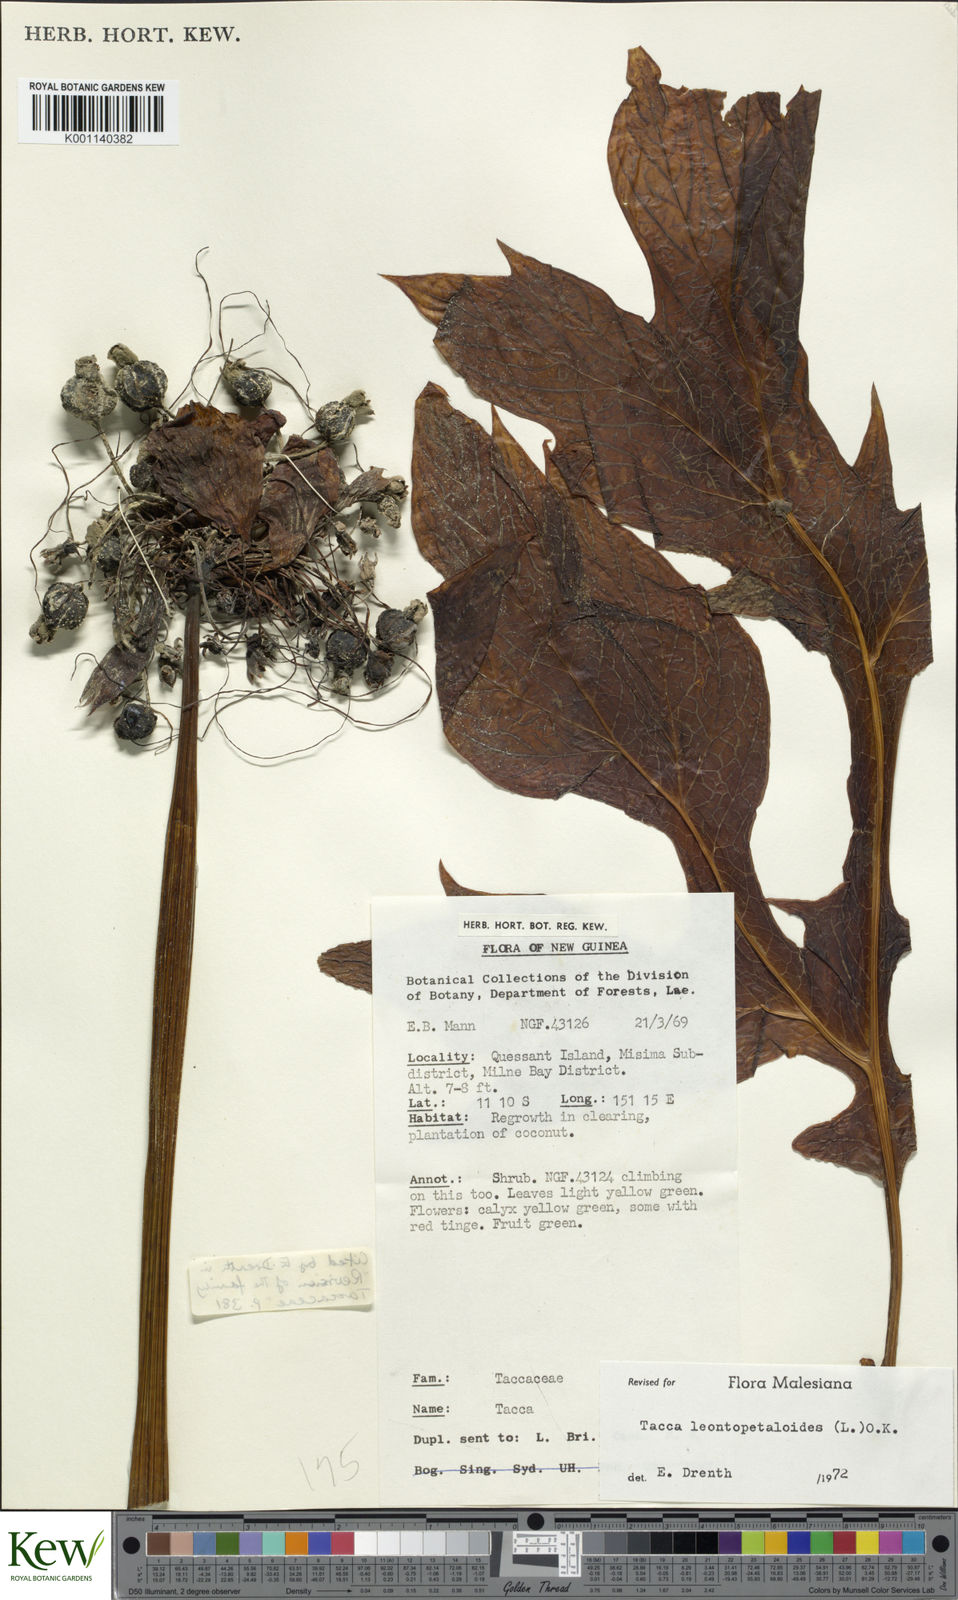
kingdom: Plantae
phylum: Tracheophyta
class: Liliopsida
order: Dioscoreales
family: Dioscoreaceae
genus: Tacca
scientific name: Tacca leontopetaloides
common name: Arrowroot
